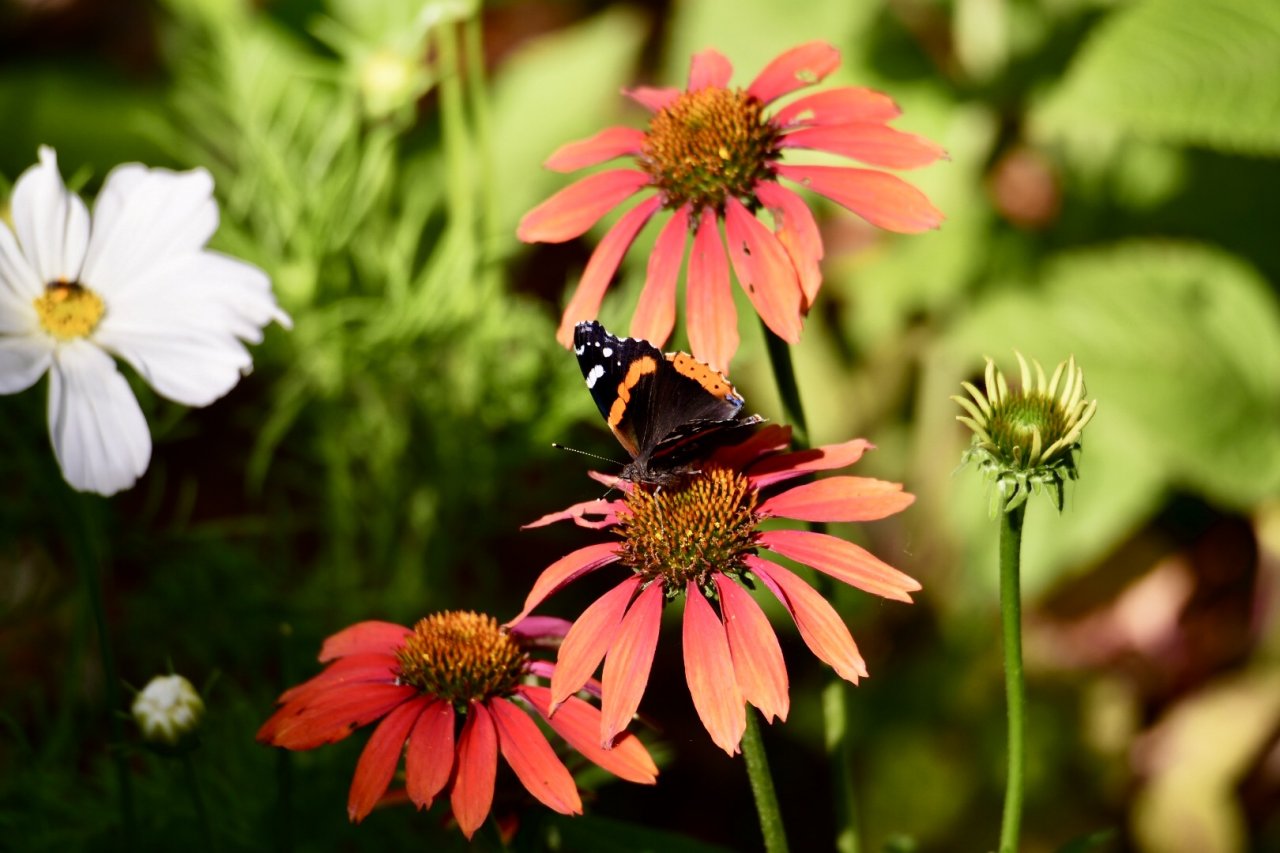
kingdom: Animalia
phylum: Arthropoda
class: Insecta
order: Lepidoptera
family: Nymphalidae
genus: Vanessa
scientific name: Vanessa atalanta
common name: Red Admiral
